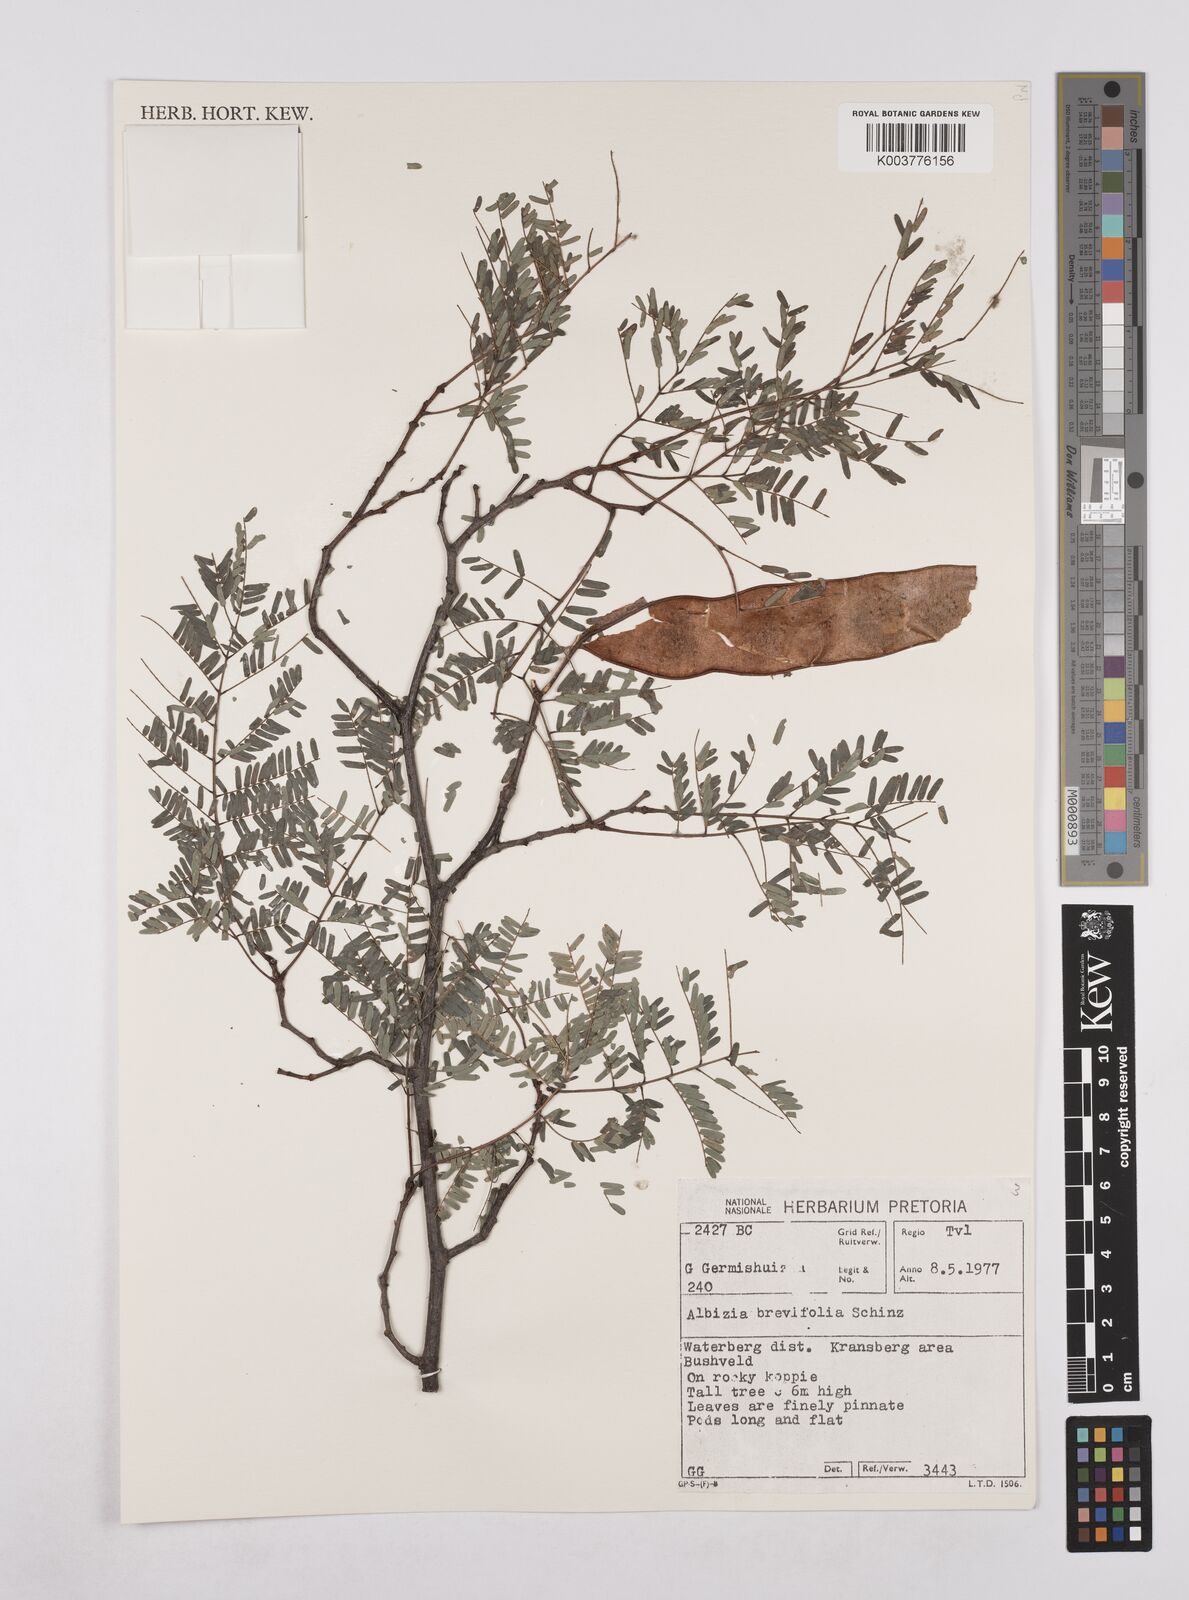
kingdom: Plantae
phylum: Tracheophyta
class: Magnoliopsida
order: Fabales
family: Fabaceae
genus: Albizia
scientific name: Albizia brevifolia
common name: Rock false-thorn
